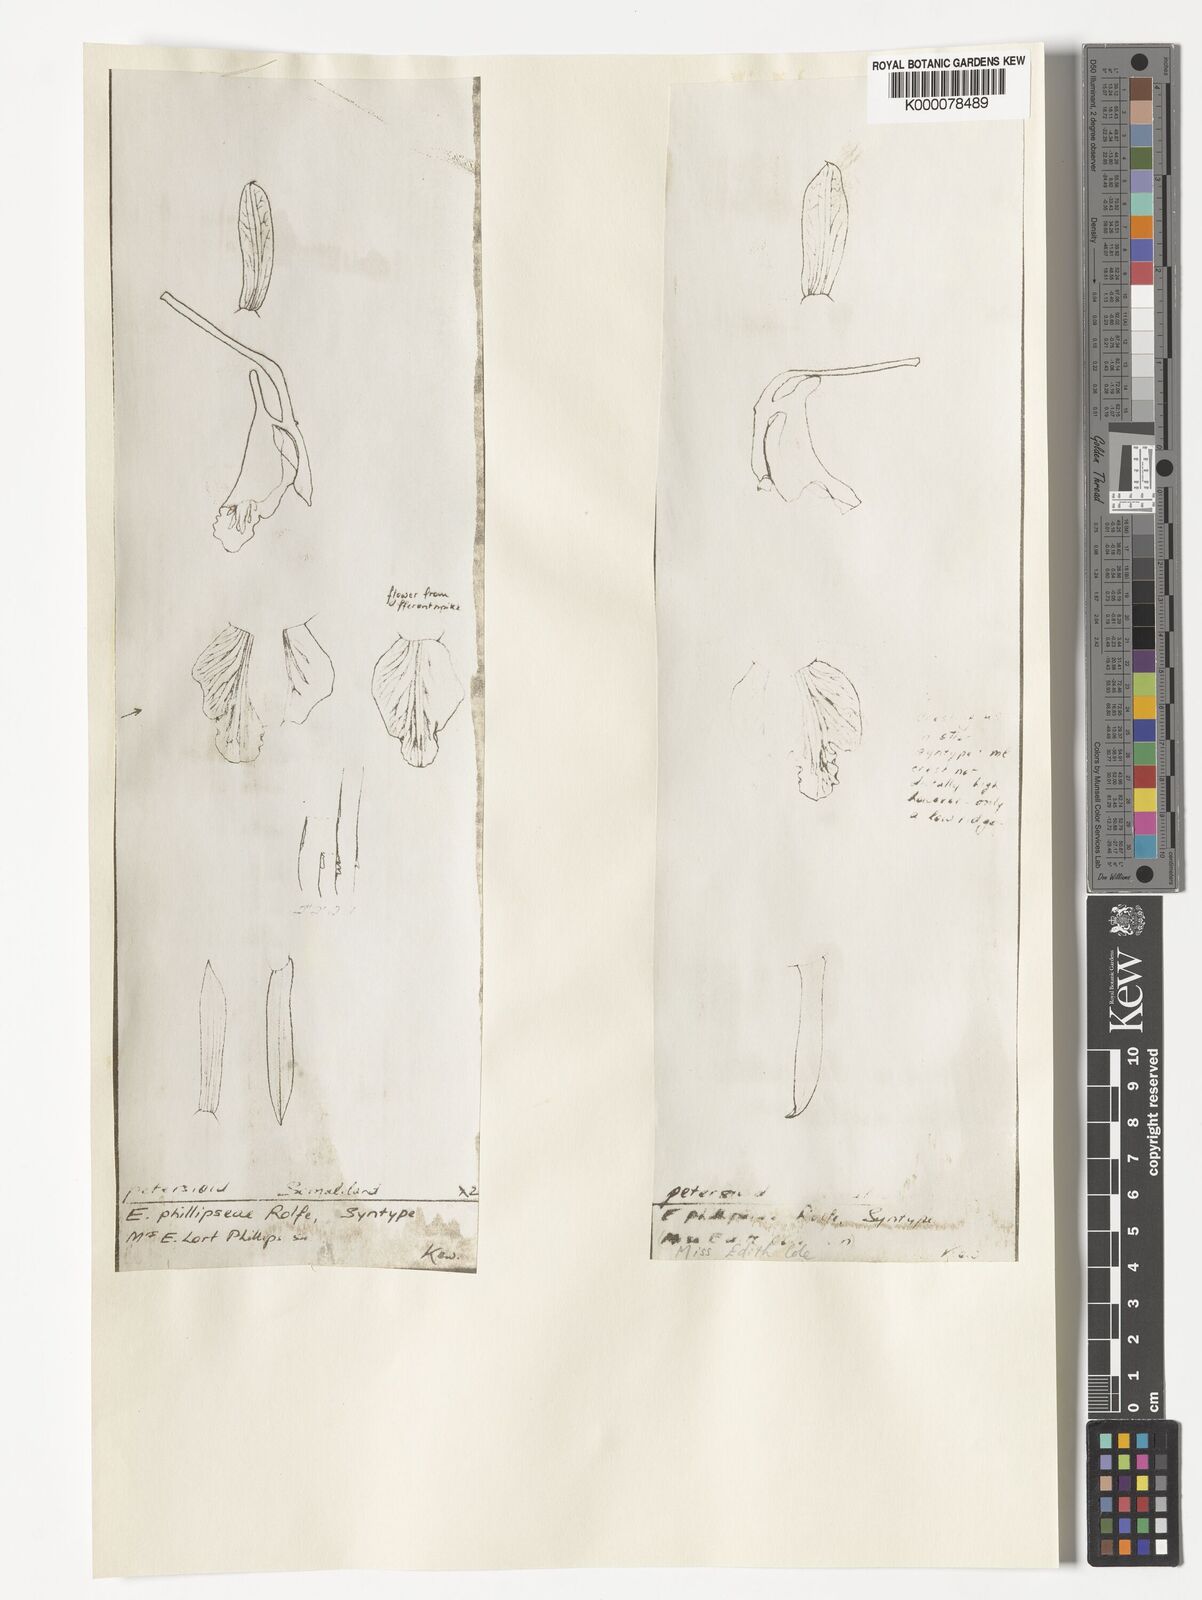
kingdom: Plantae
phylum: Tracheophyta
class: Liliopsida
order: Asparagales
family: Orchidaceae
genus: Eulophia
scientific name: Eulophia petersii
